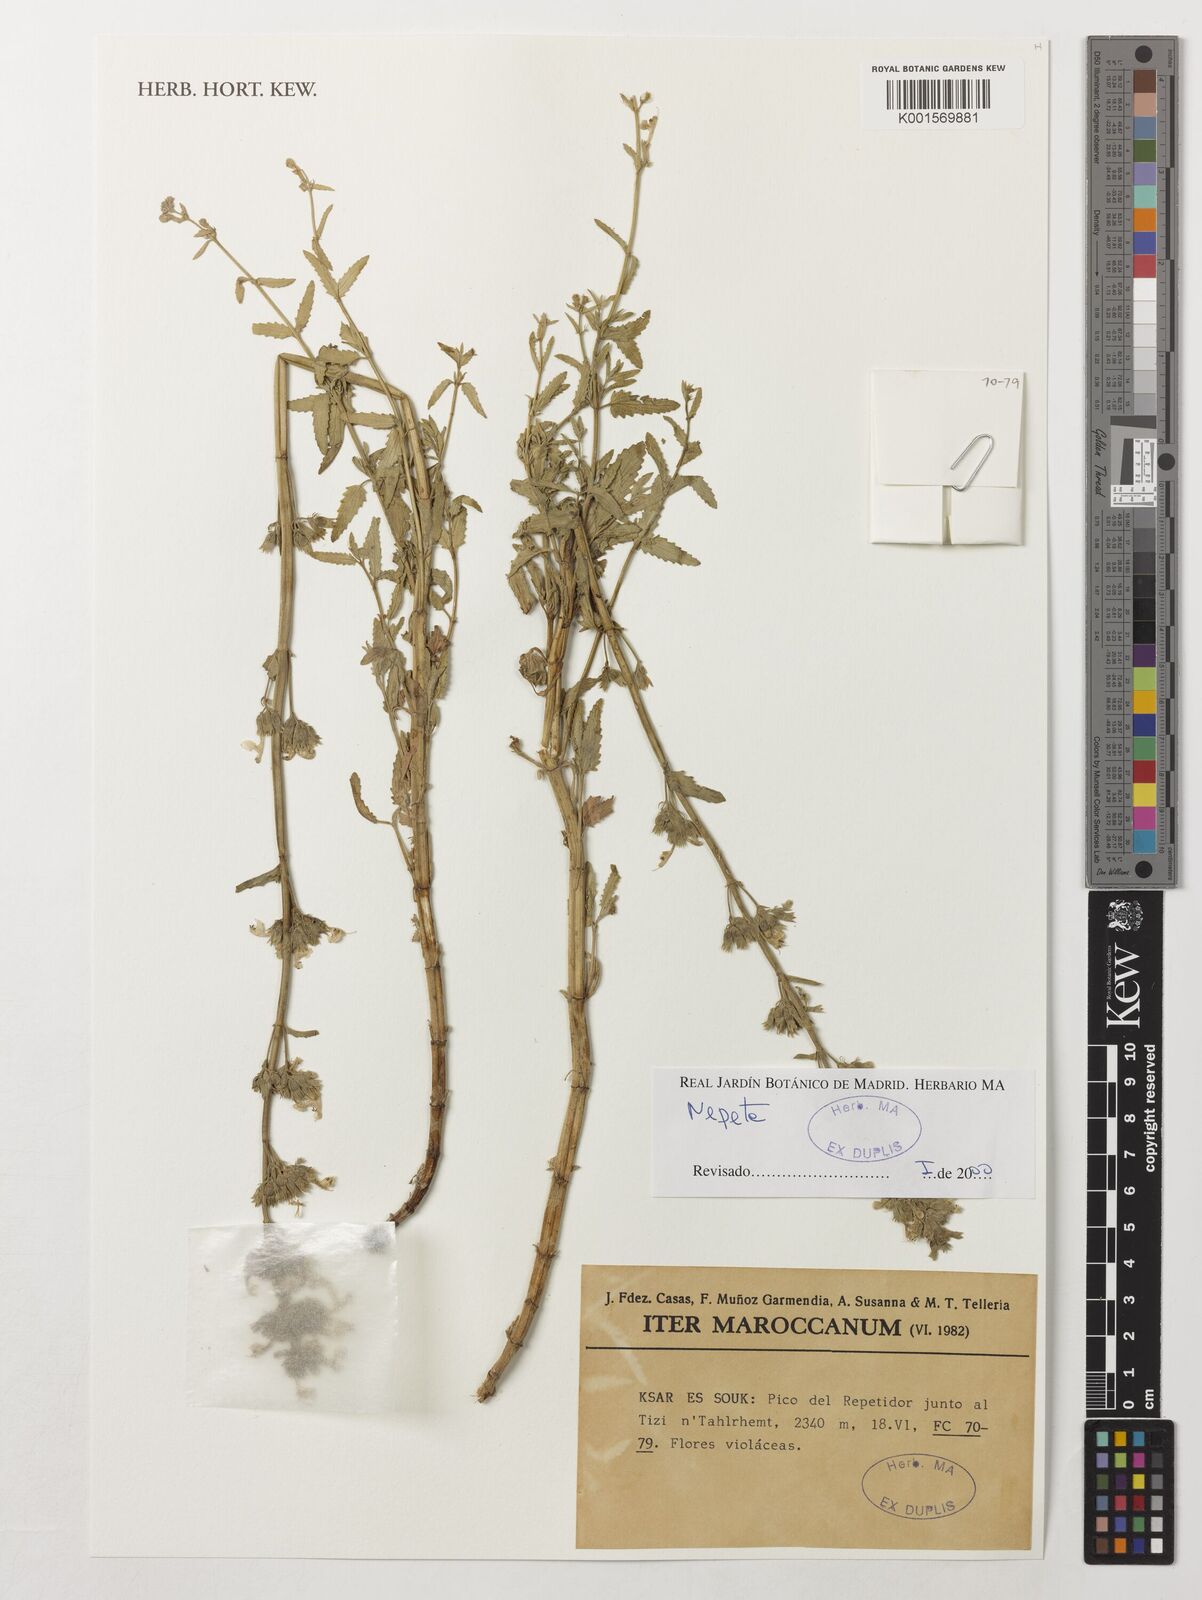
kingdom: Plantae
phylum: Tracheophyta
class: Magnoliopsida
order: Lamiales
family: Lamiaceae
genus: Nepeta
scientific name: Nepeta
